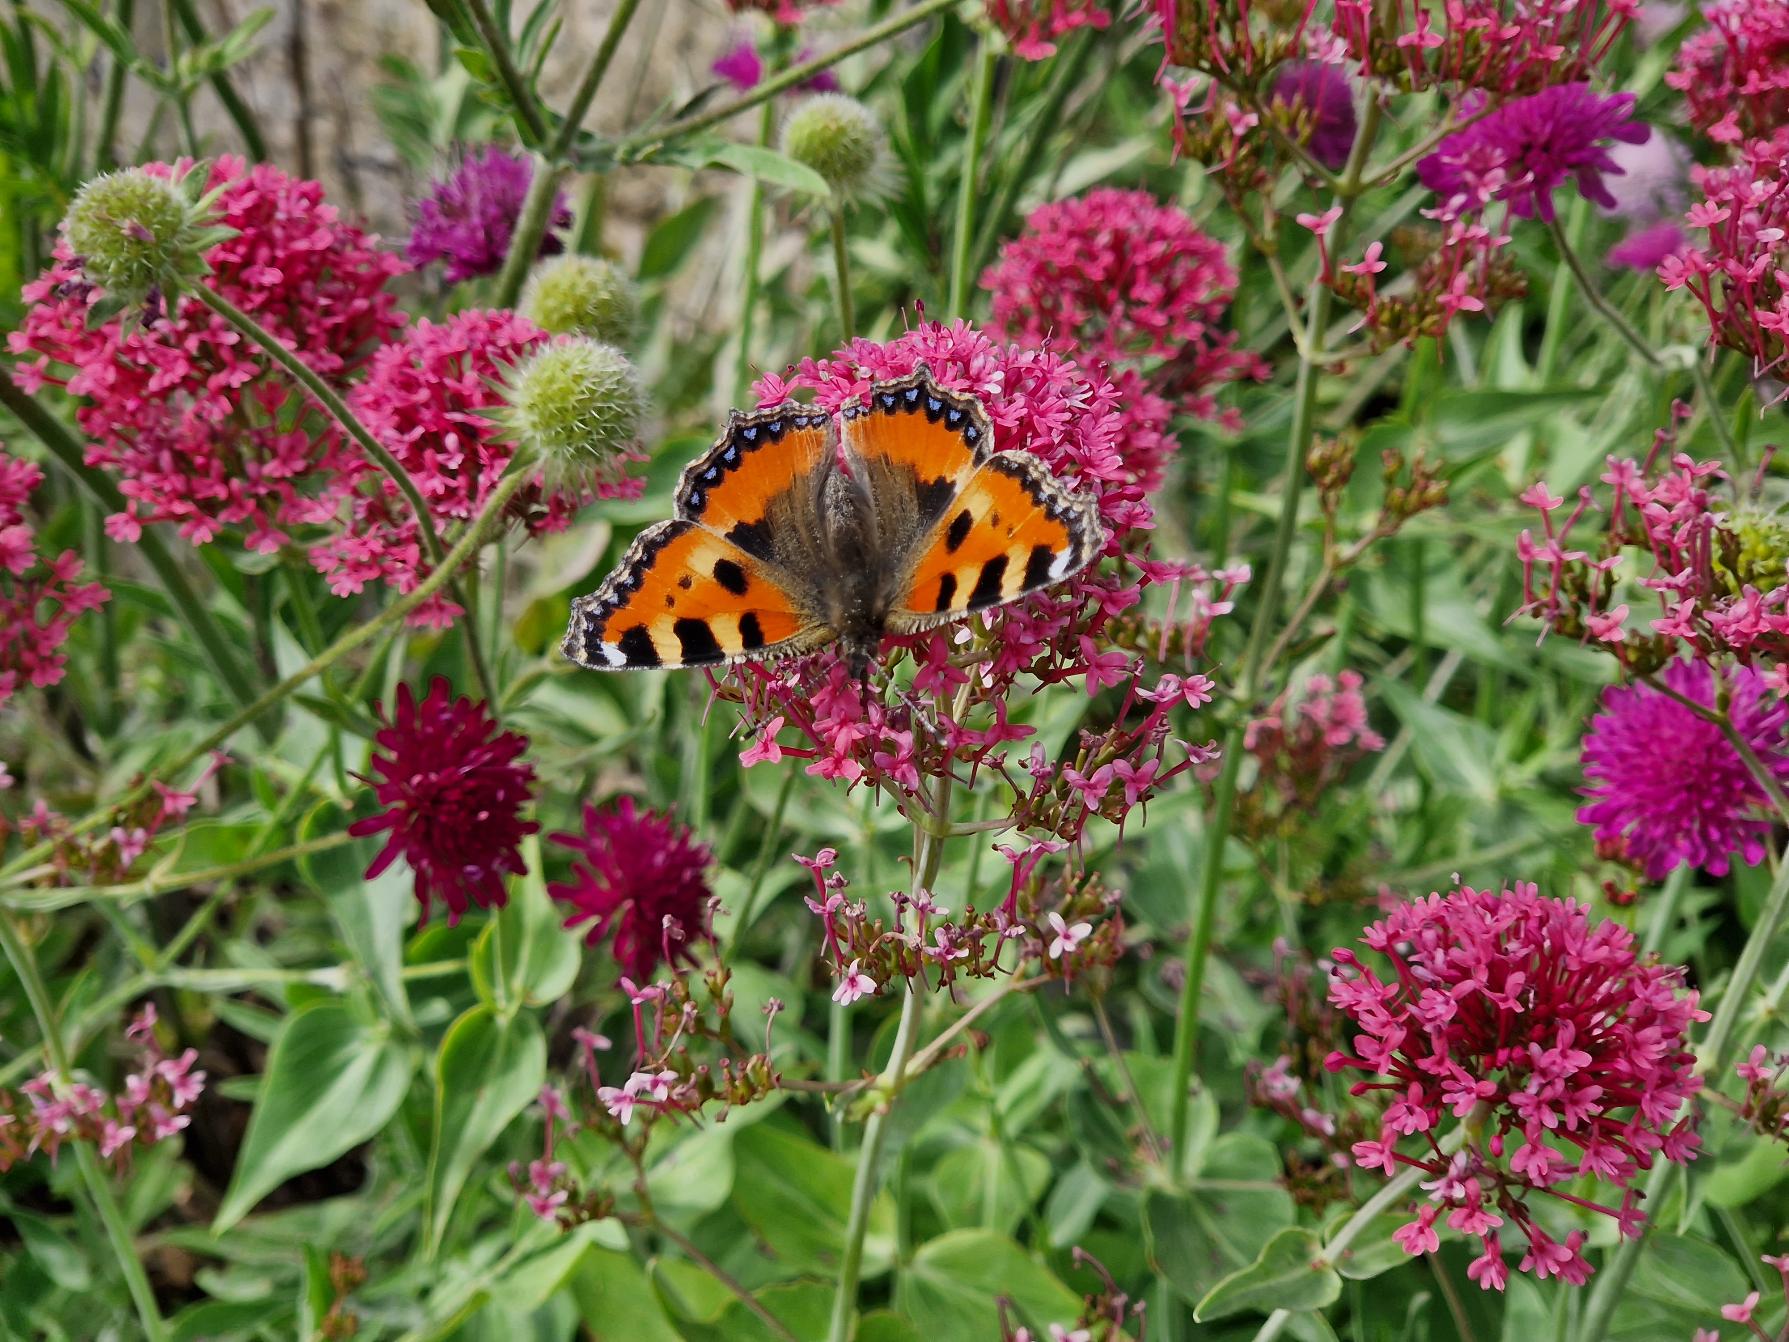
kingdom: Animalia
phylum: Arthropoda
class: Insecta
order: Lepidoptera
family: Nymphalidae
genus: Aglais
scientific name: Aglais urticae
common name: Nældens takvinge
